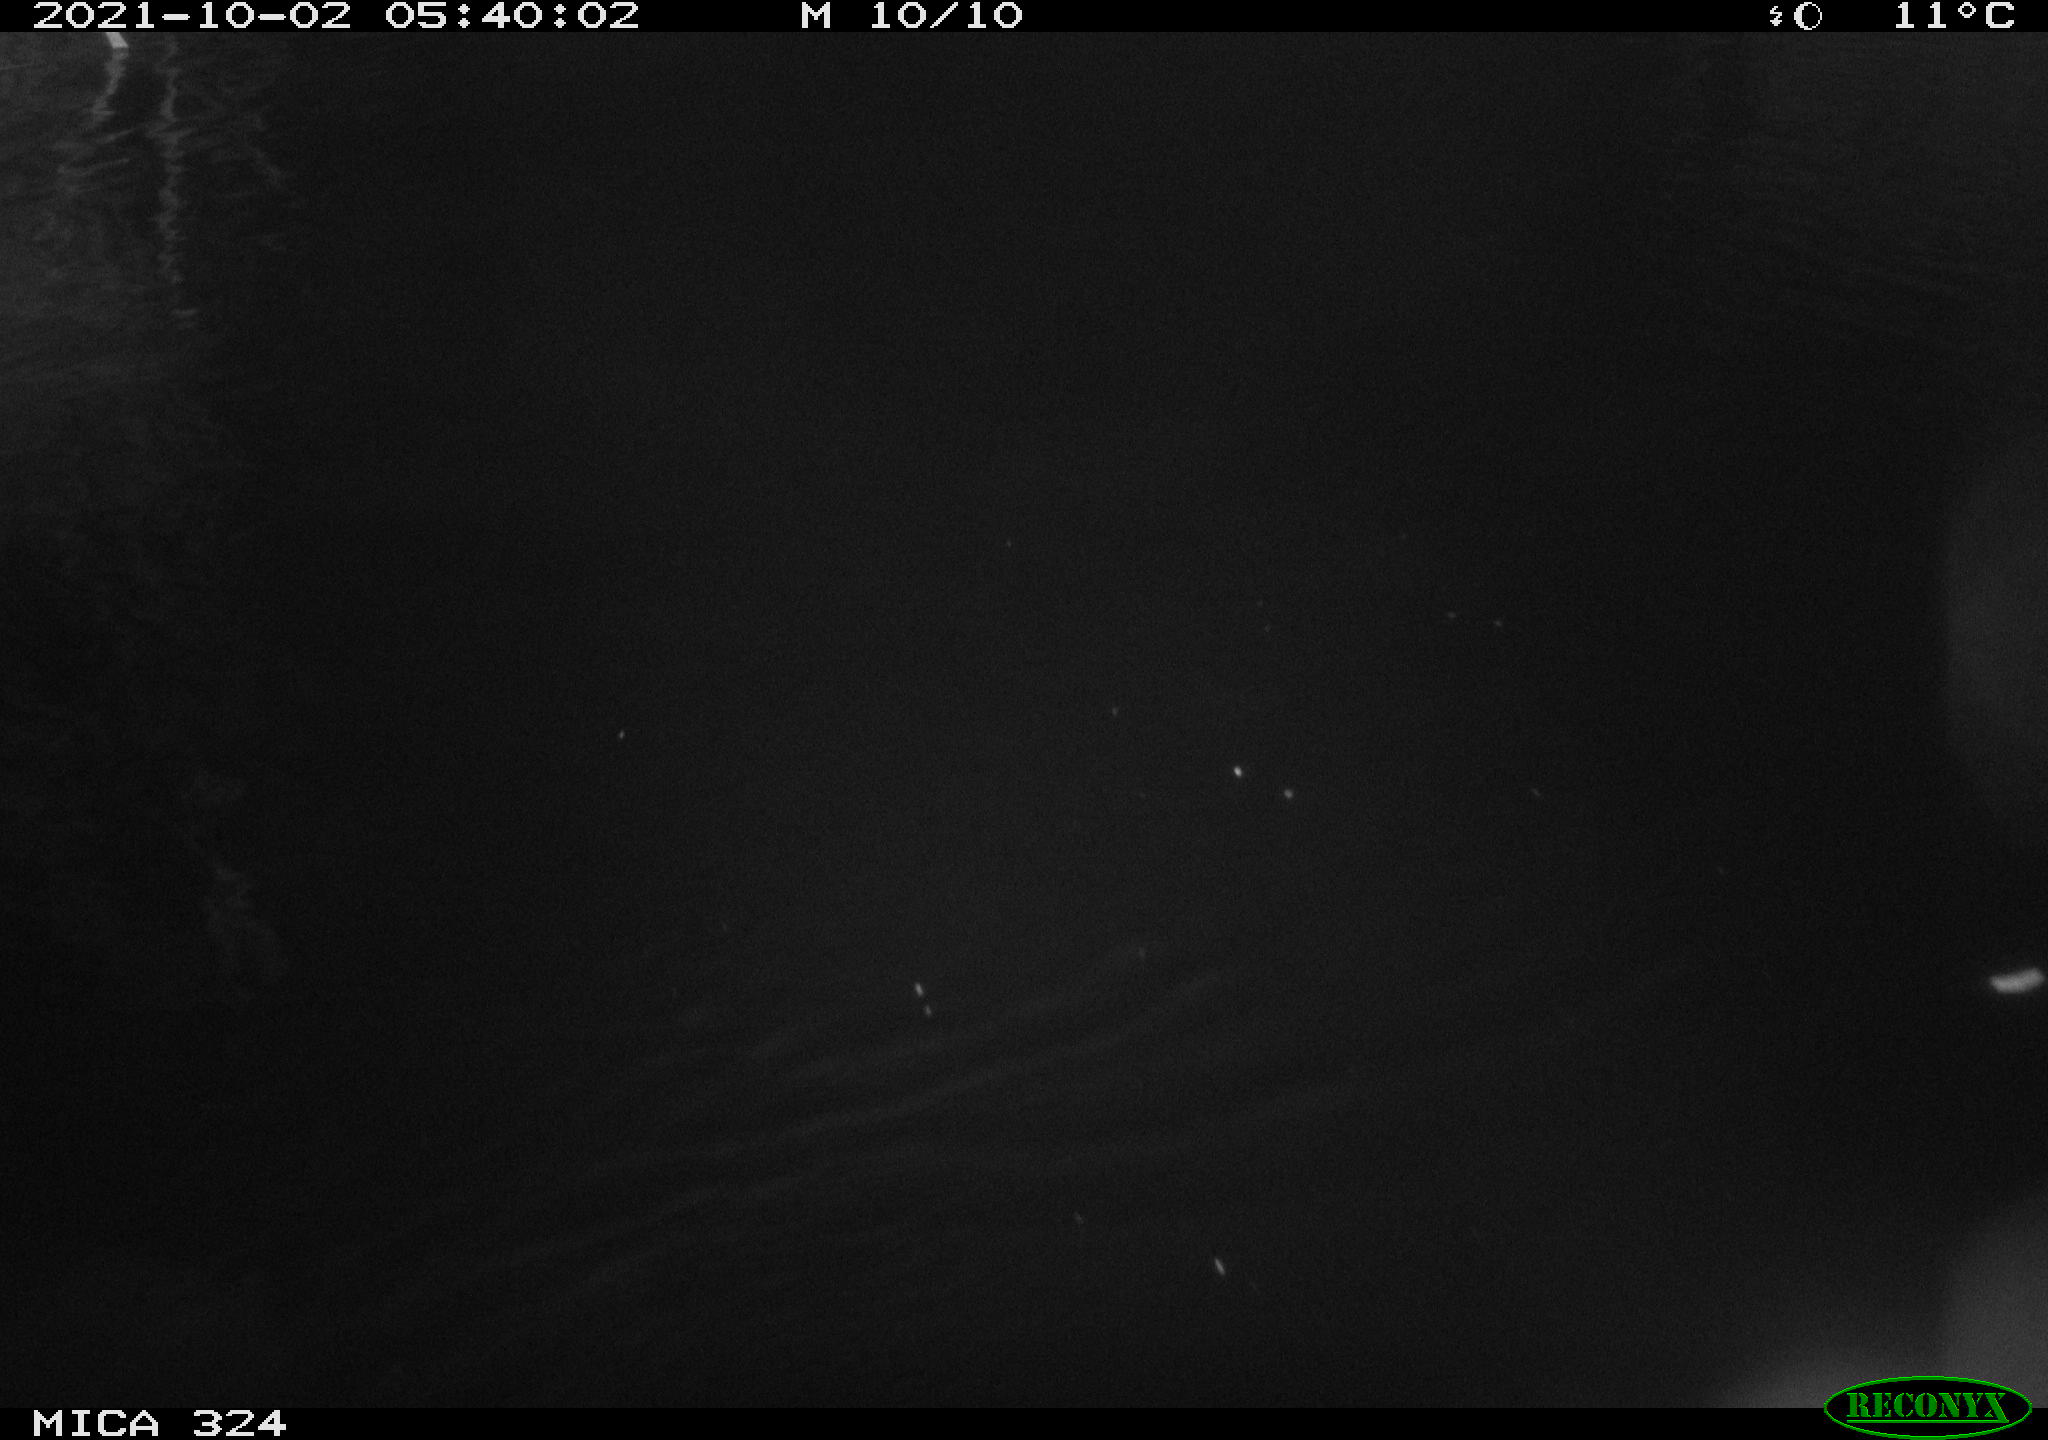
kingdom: Animalia
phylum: Chordata
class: Mammalia
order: Rodentia
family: Cricetidae
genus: Ondatra
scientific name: Ondatra zibethicus
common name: Muskrat
